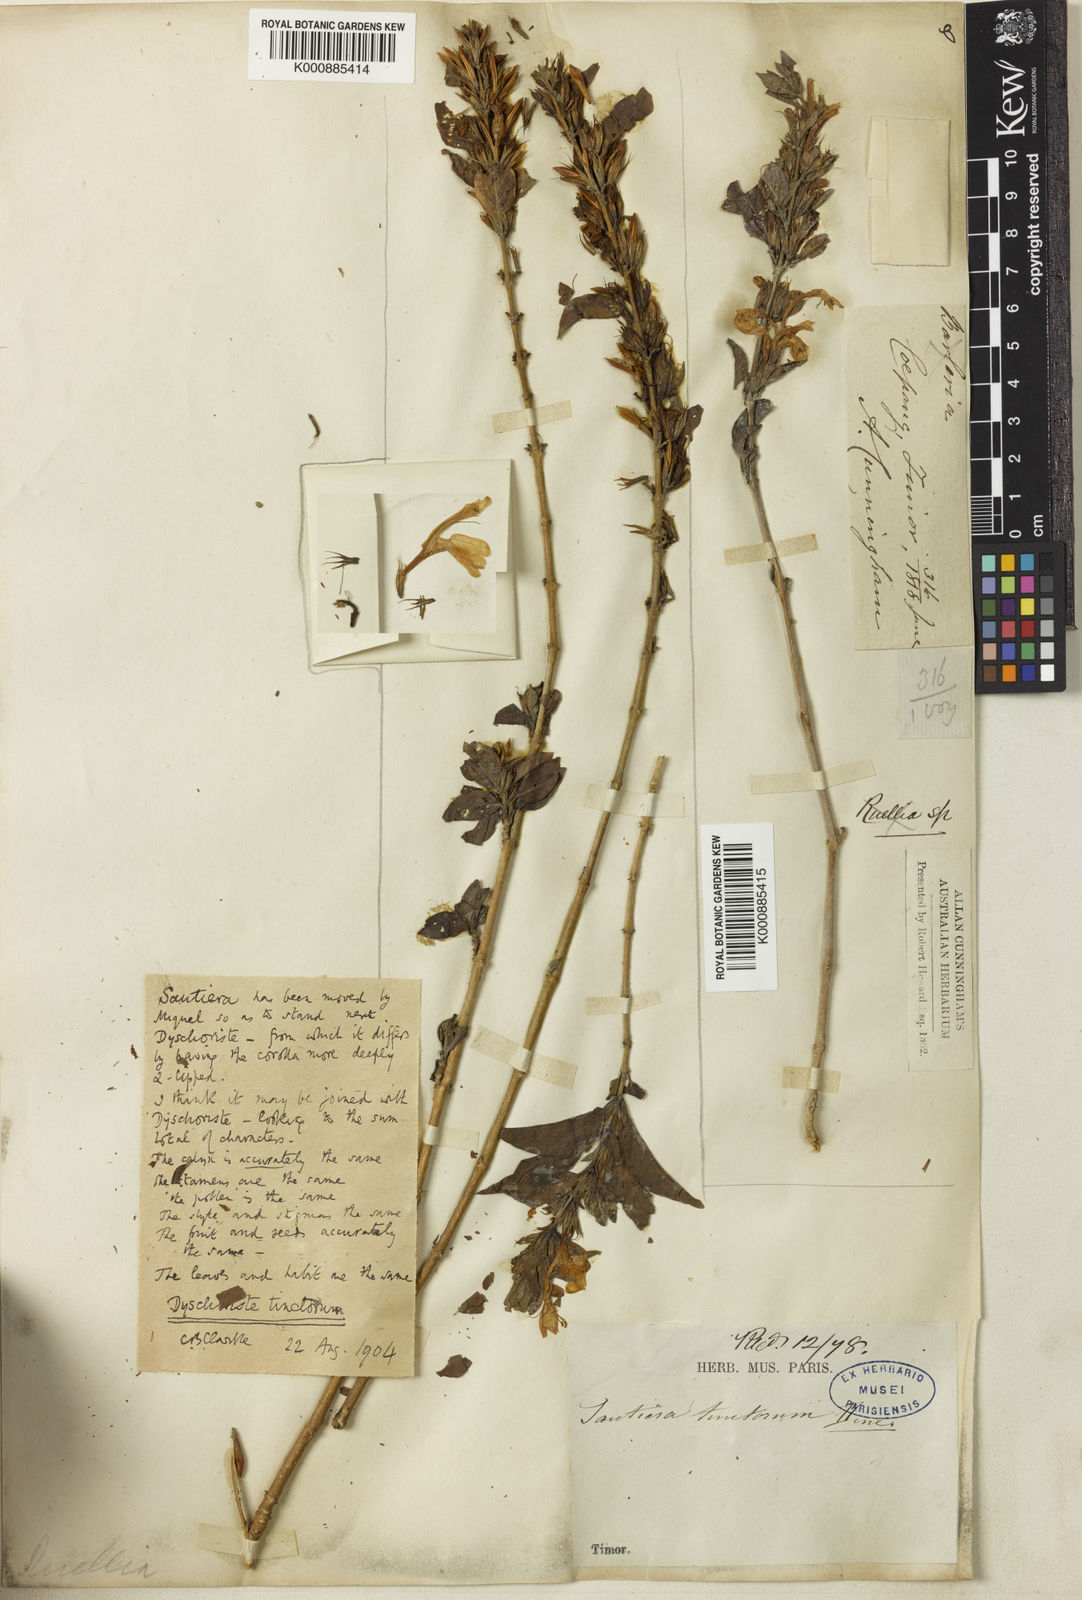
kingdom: Plantae
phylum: Tracheophyta
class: Magnoliopsida
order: Lamiales
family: Acanthaceae
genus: Dyschoriste
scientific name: Dyschoriste tinctorum
